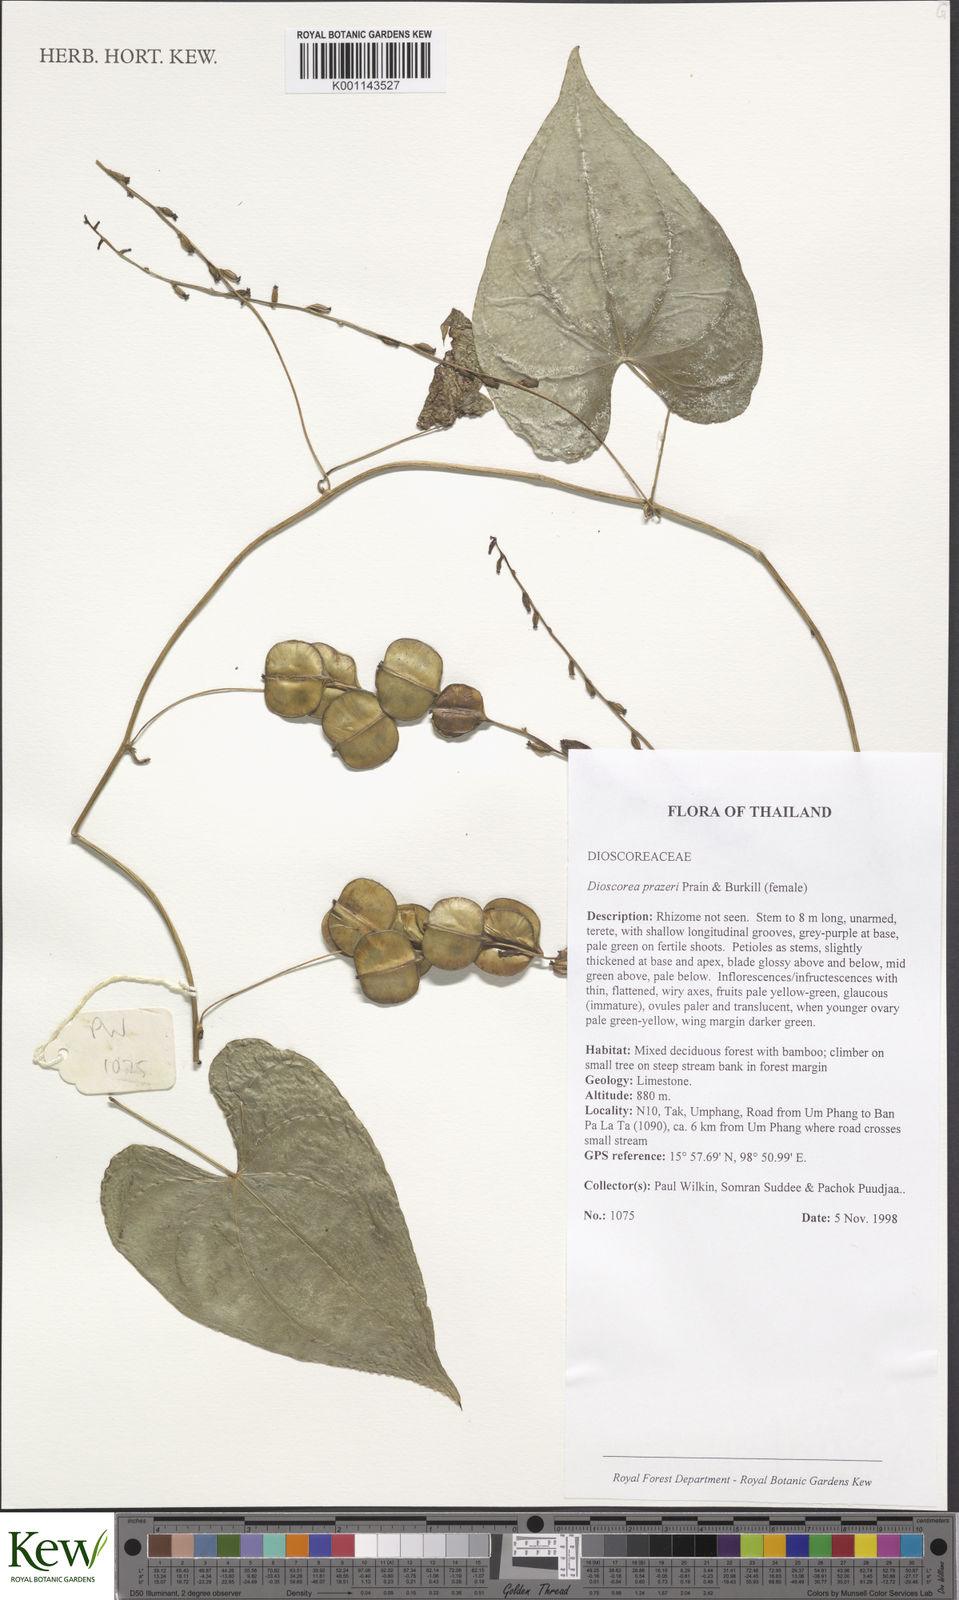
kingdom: Plantae
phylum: Tracheophyta
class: Liliopsida
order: Dioscoreales
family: Dioscoreaceae
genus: Dioscorea
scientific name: Dioscorea prazeri
